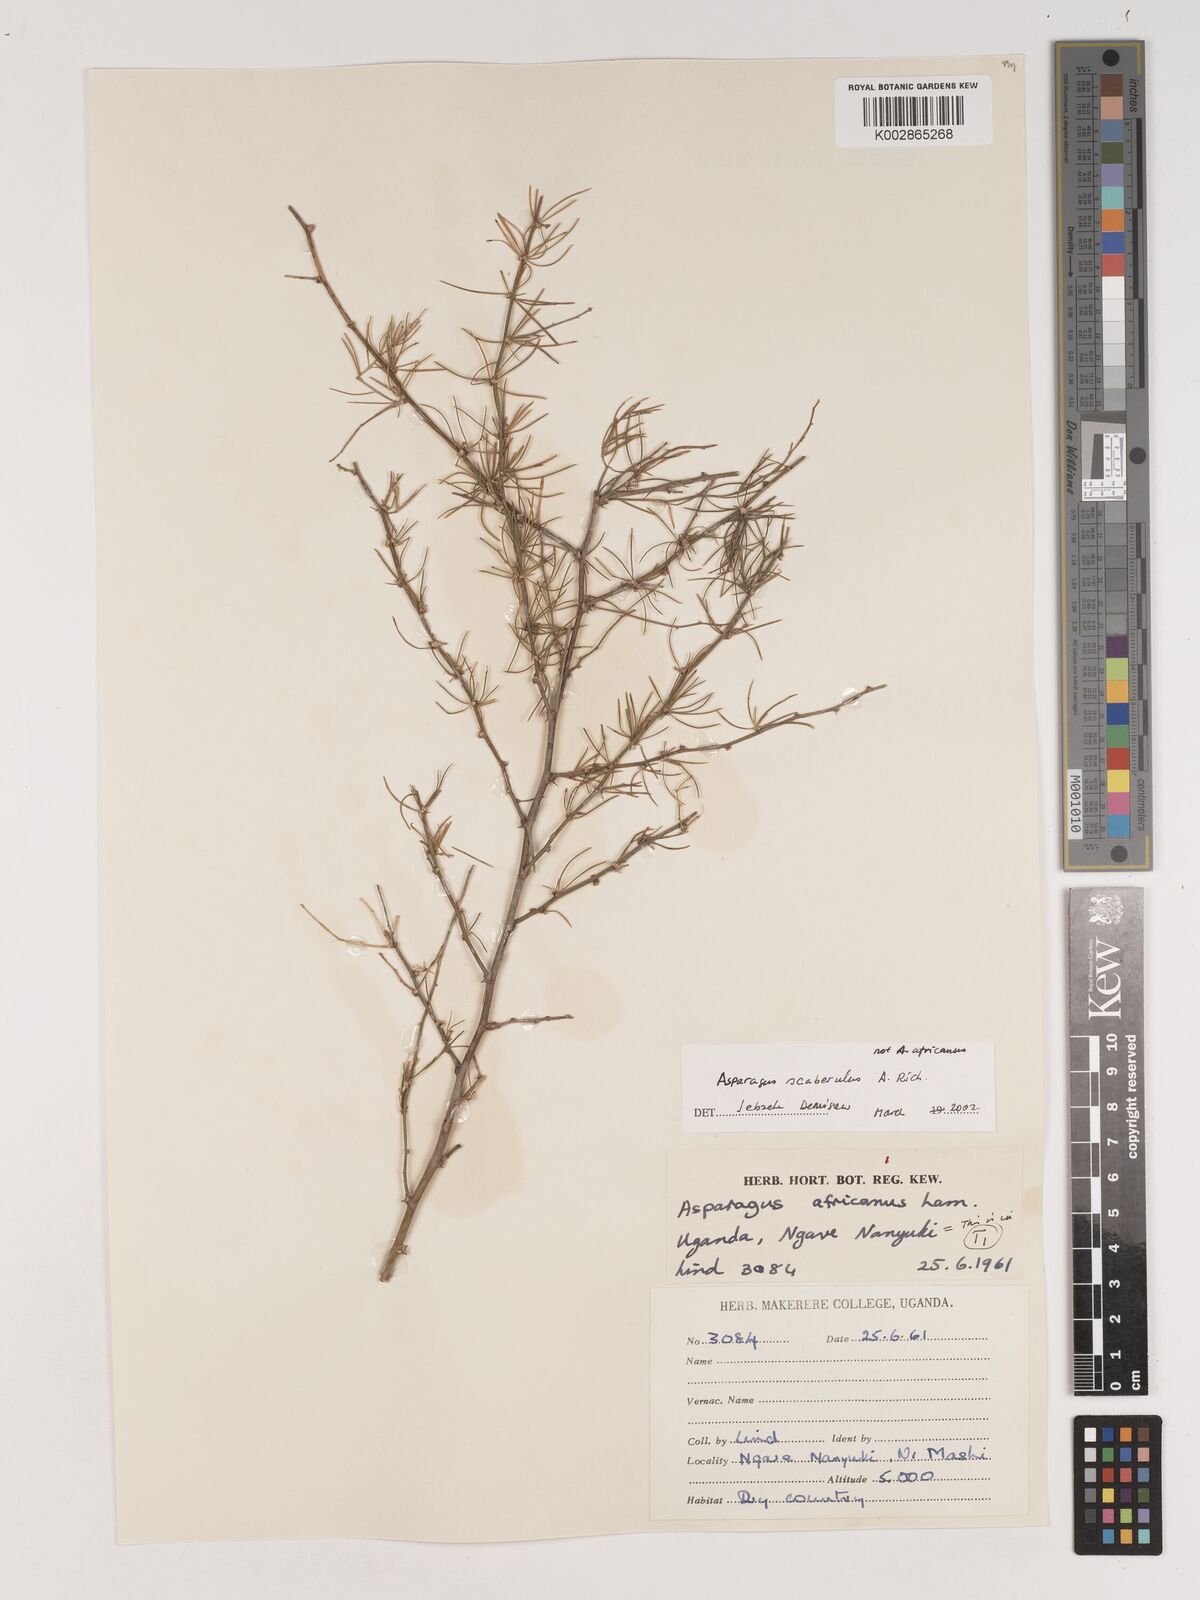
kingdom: Plantae
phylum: Tracheophyta
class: Liliopsida
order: Asparagales
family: Asparagaceae
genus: Asparagus
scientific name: Asparagus scaberulus
